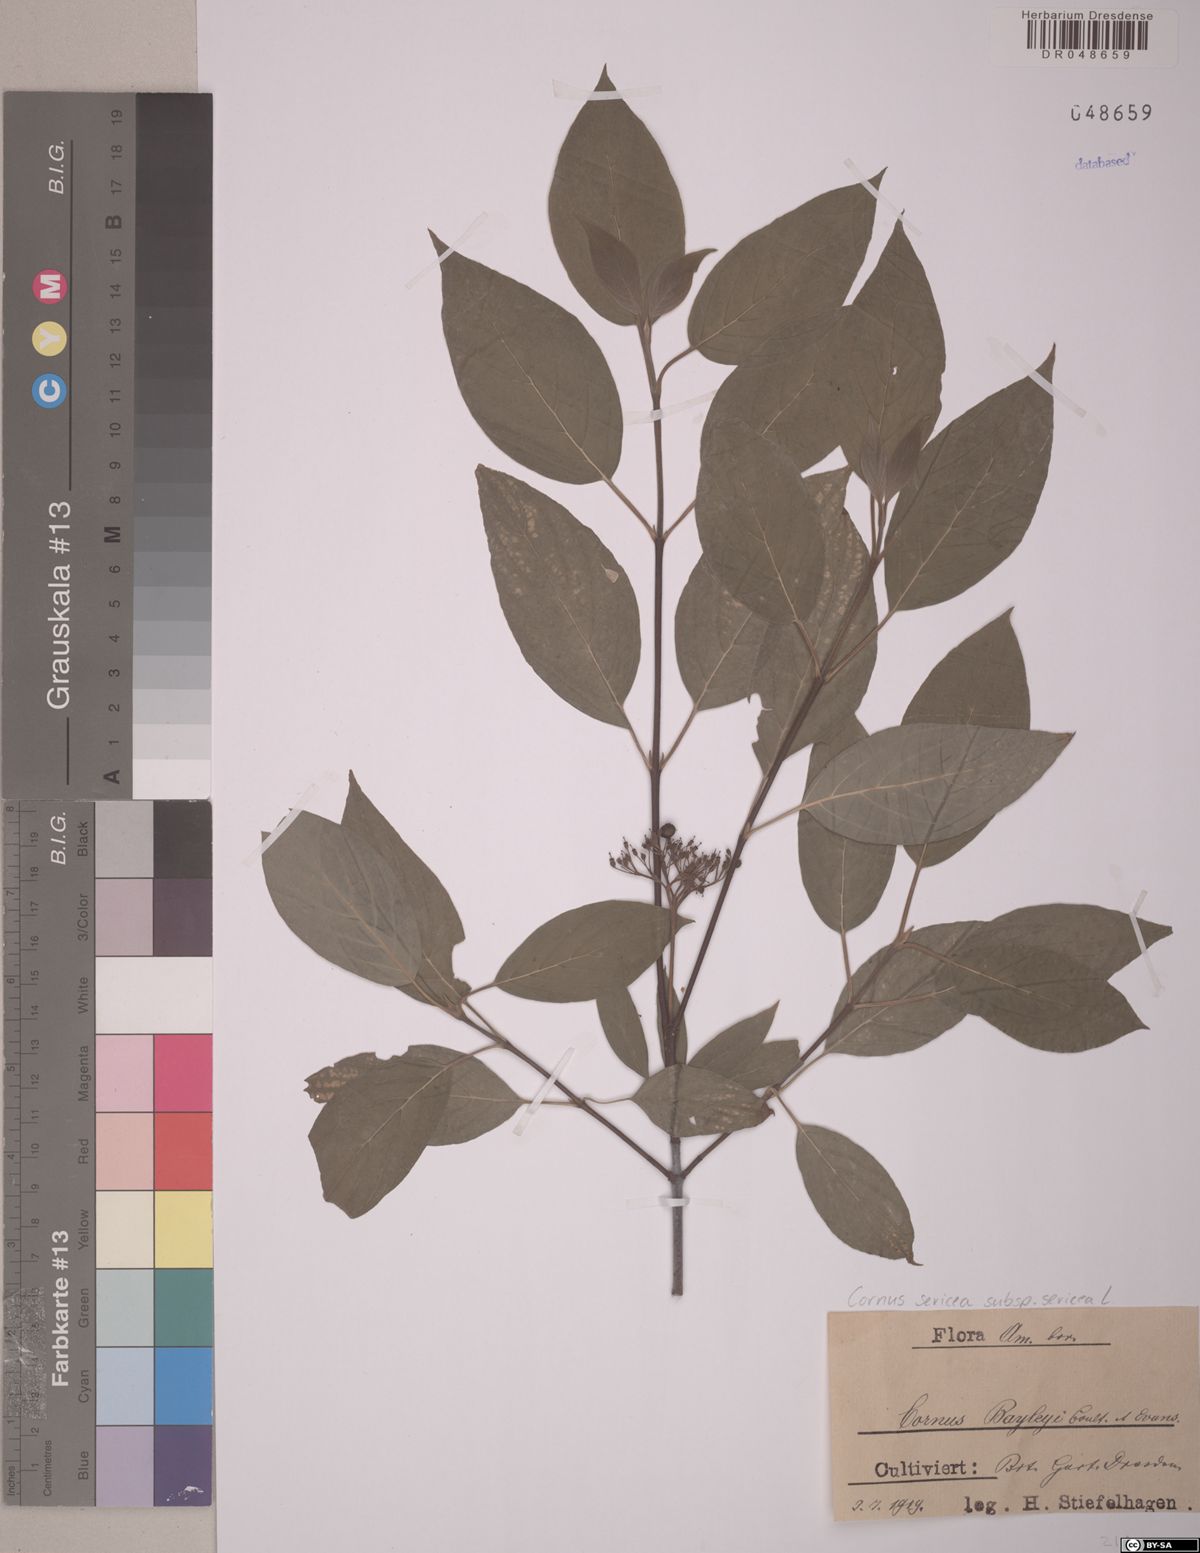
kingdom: Plantae
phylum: Tracheophyta
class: Magnoliopsida
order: Cornales
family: Cornaceae
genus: Cornus
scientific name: Cornus sericea
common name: Red-osier dogwood
